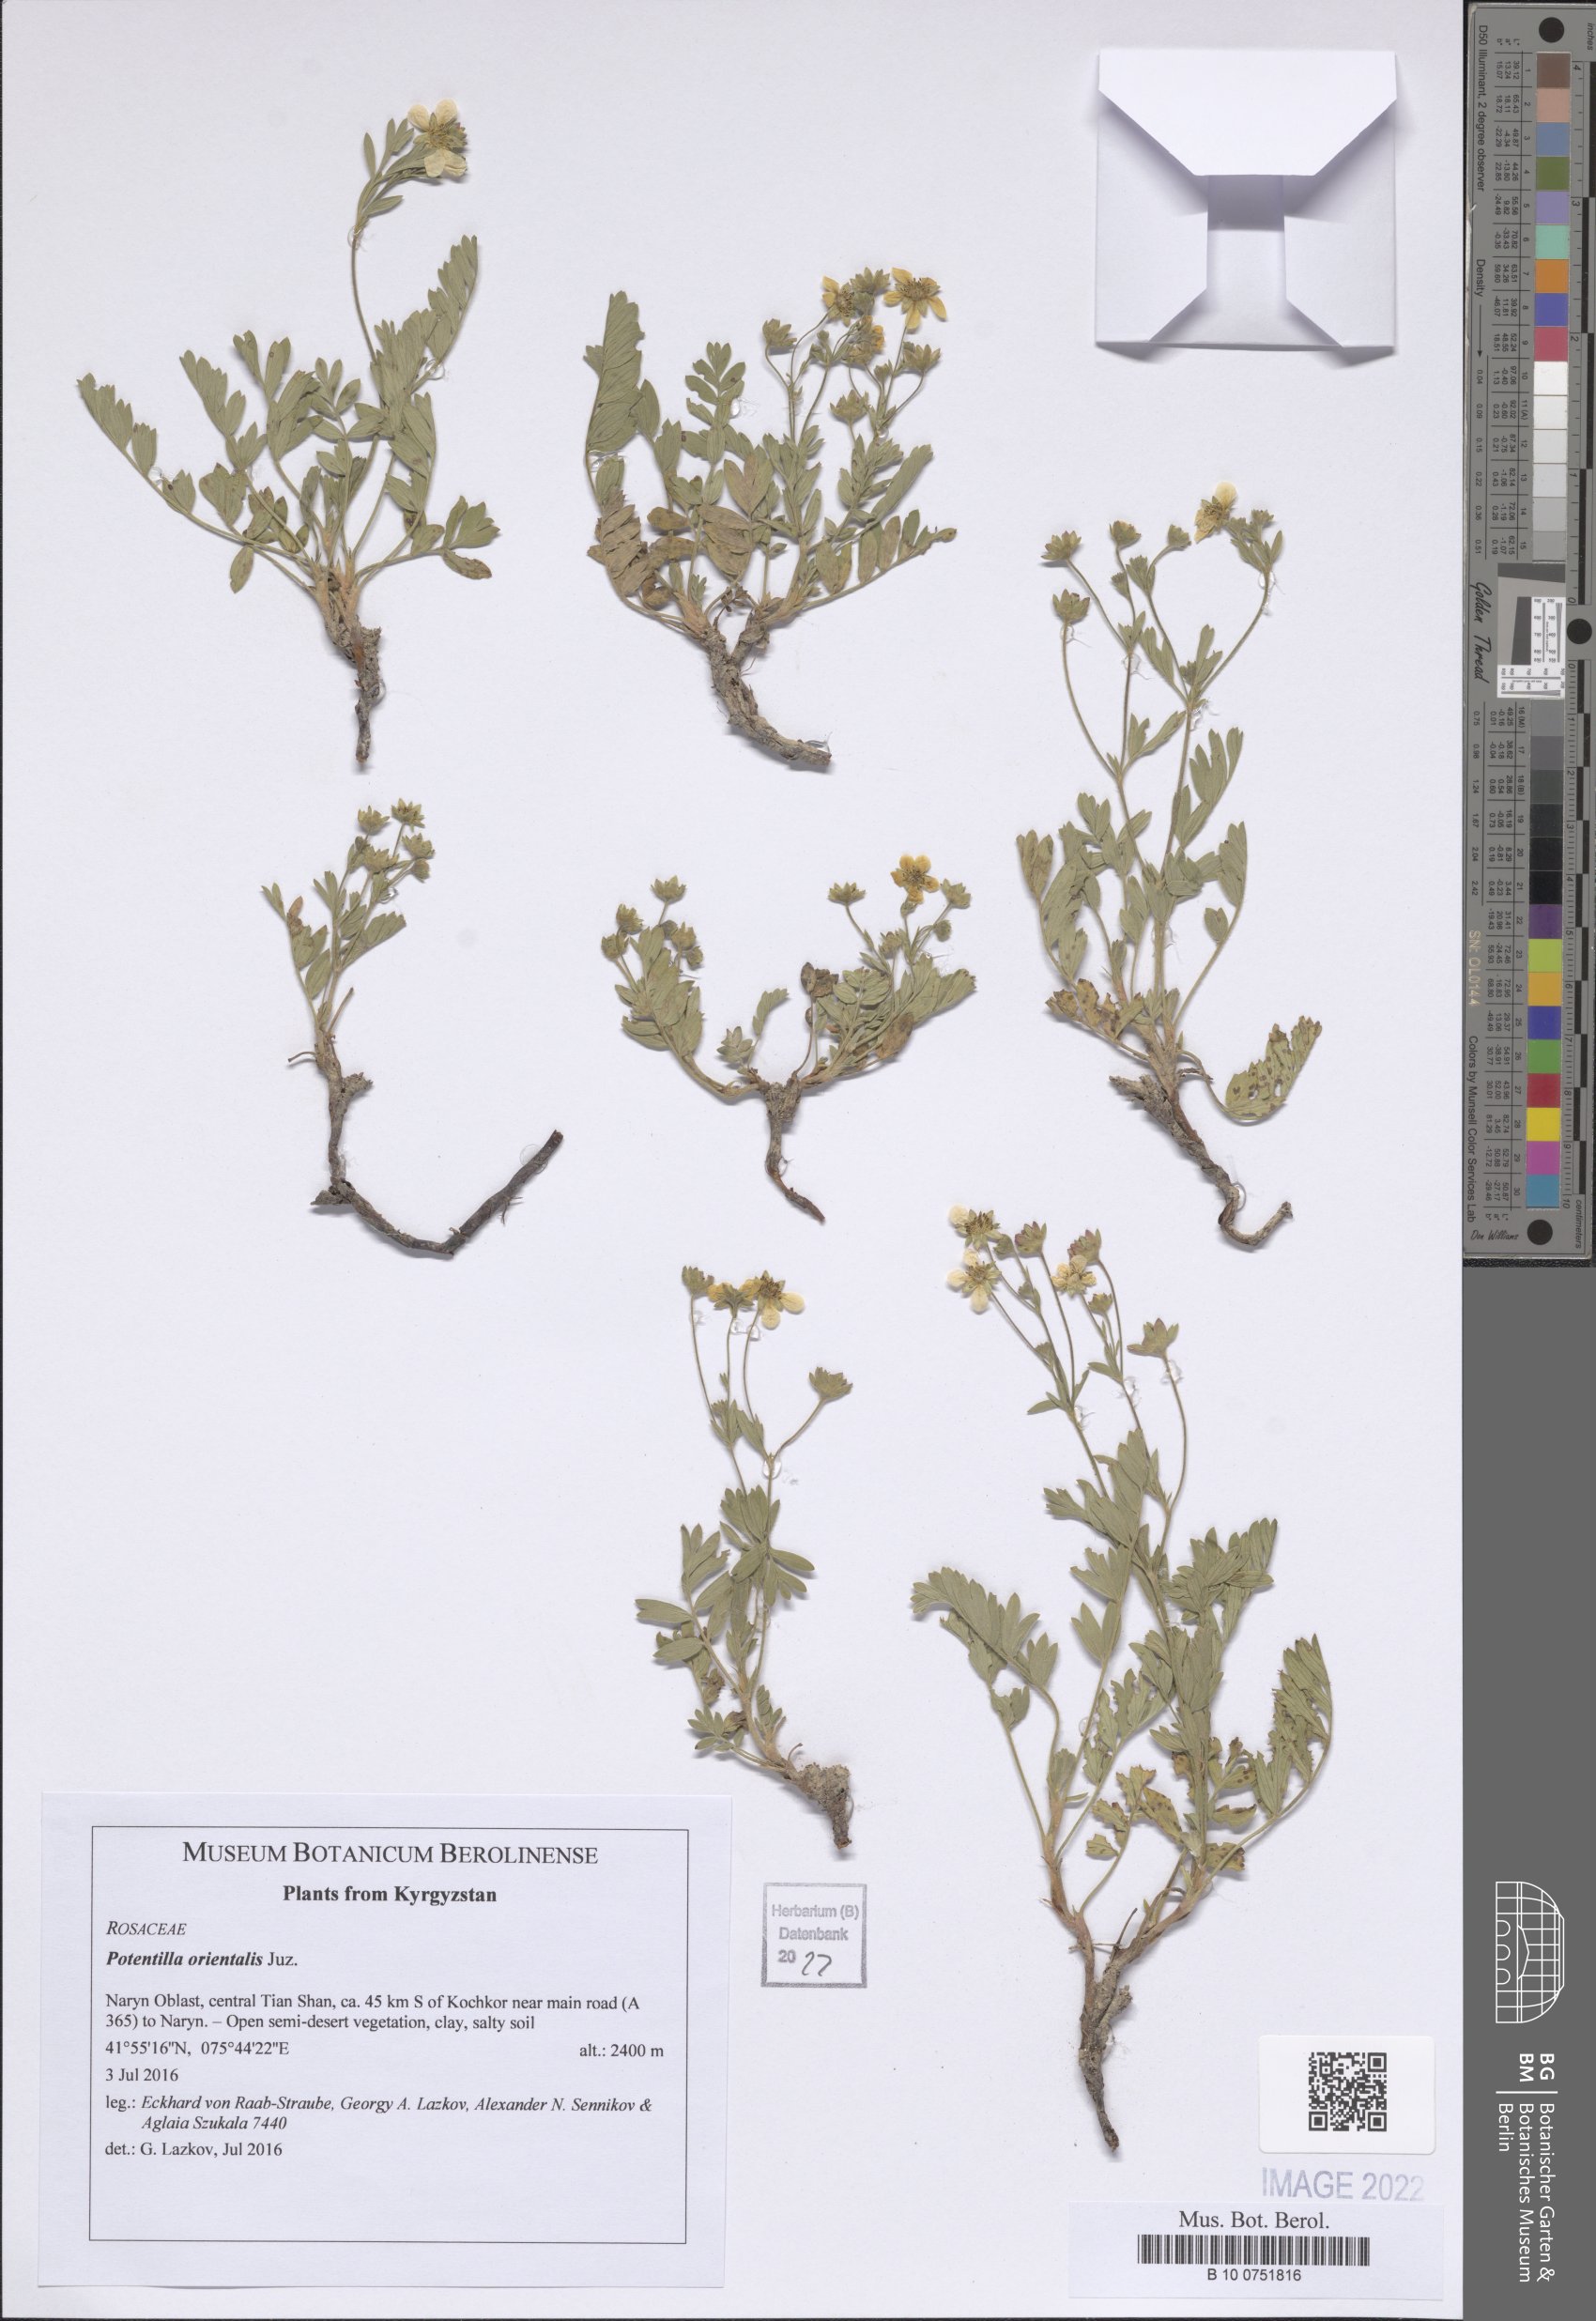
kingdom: Plantae
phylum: Tracheophyta
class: Magnoliopsida
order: Rosales
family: Rosaceae
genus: Sibbaldianthe
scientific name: Sibbaldianthe orientalis
